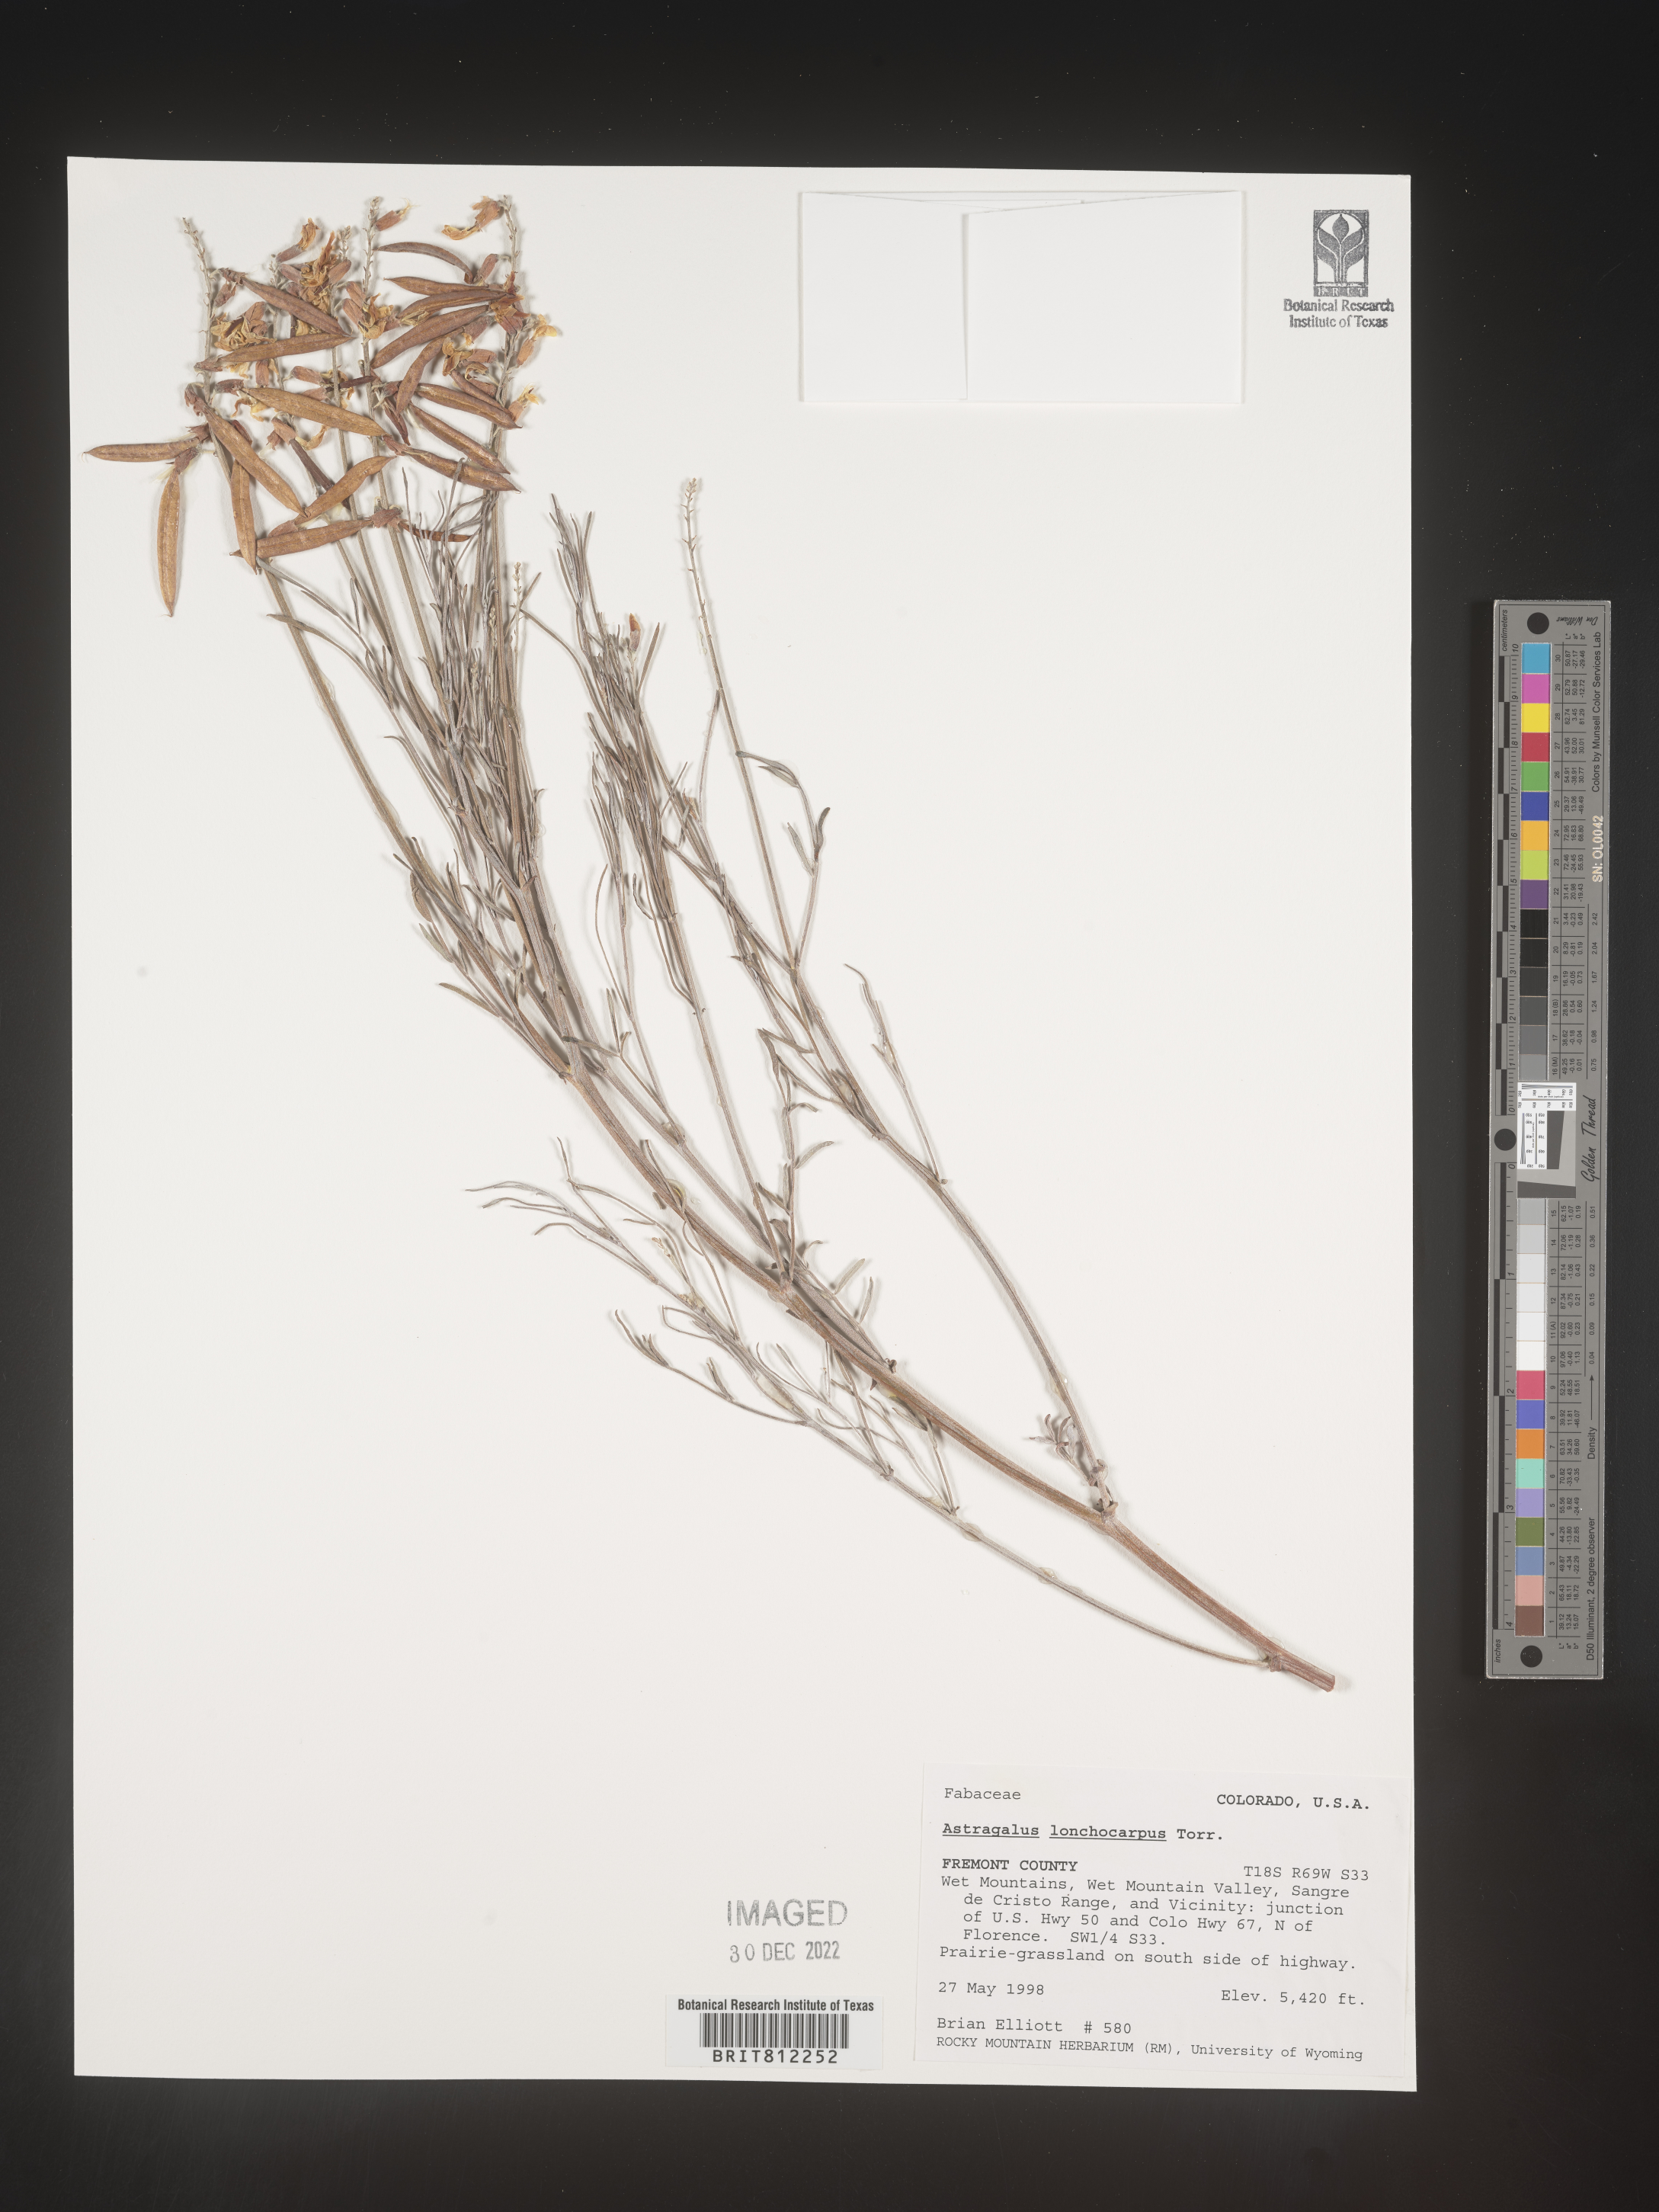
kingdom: Plantae
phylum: Tracheophyta
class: Magnoliopsida
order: Fabales
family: Fabaceae
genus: Astragalus
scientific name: Astragalus lonchocarpus
